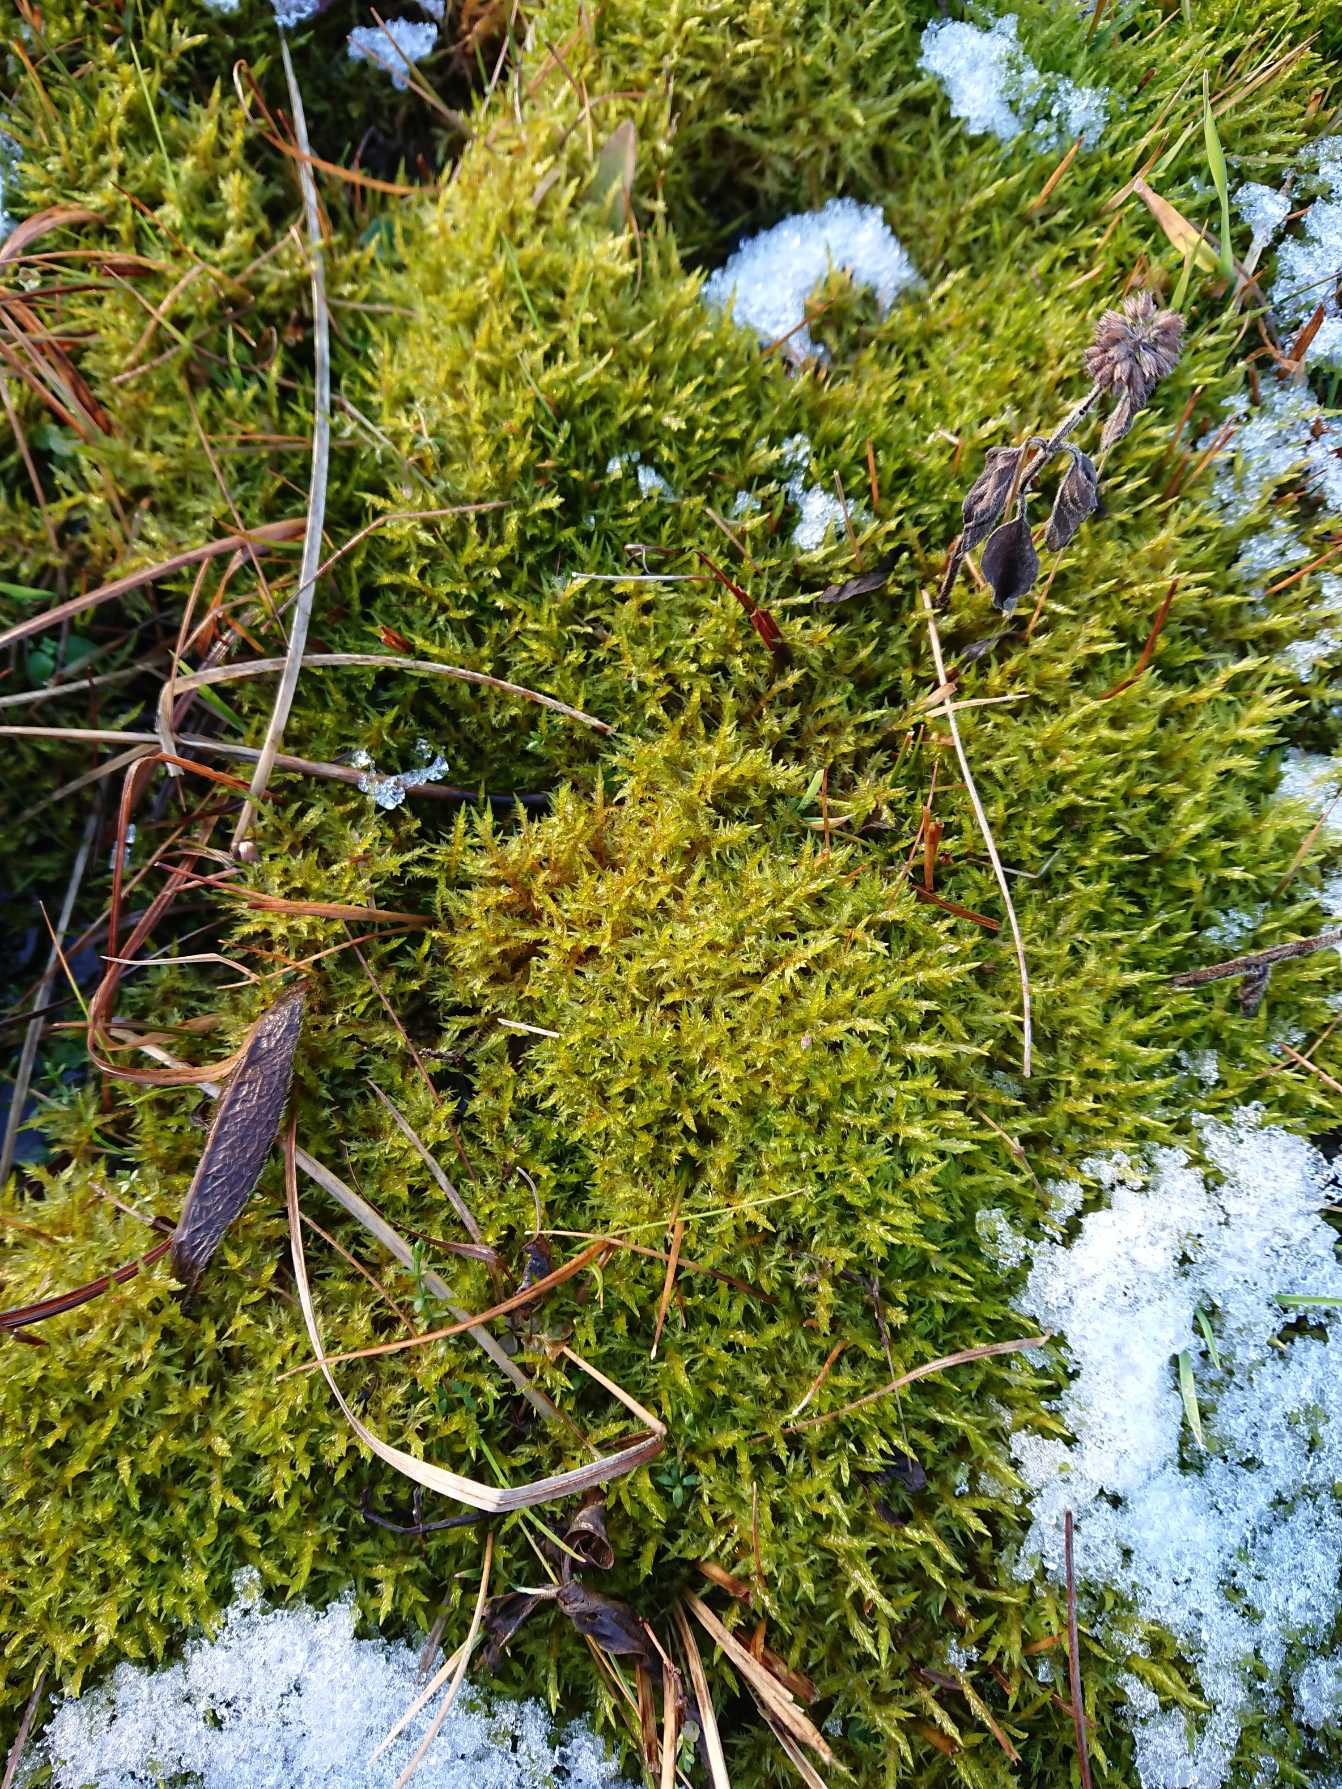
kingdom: Plantae
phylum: Bryophyta
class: Bryopsida
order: Hypnales
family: Pylaisiaceae
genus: Calliergonella
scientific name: Calliergonella cuspidata
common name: Spids spydmos
